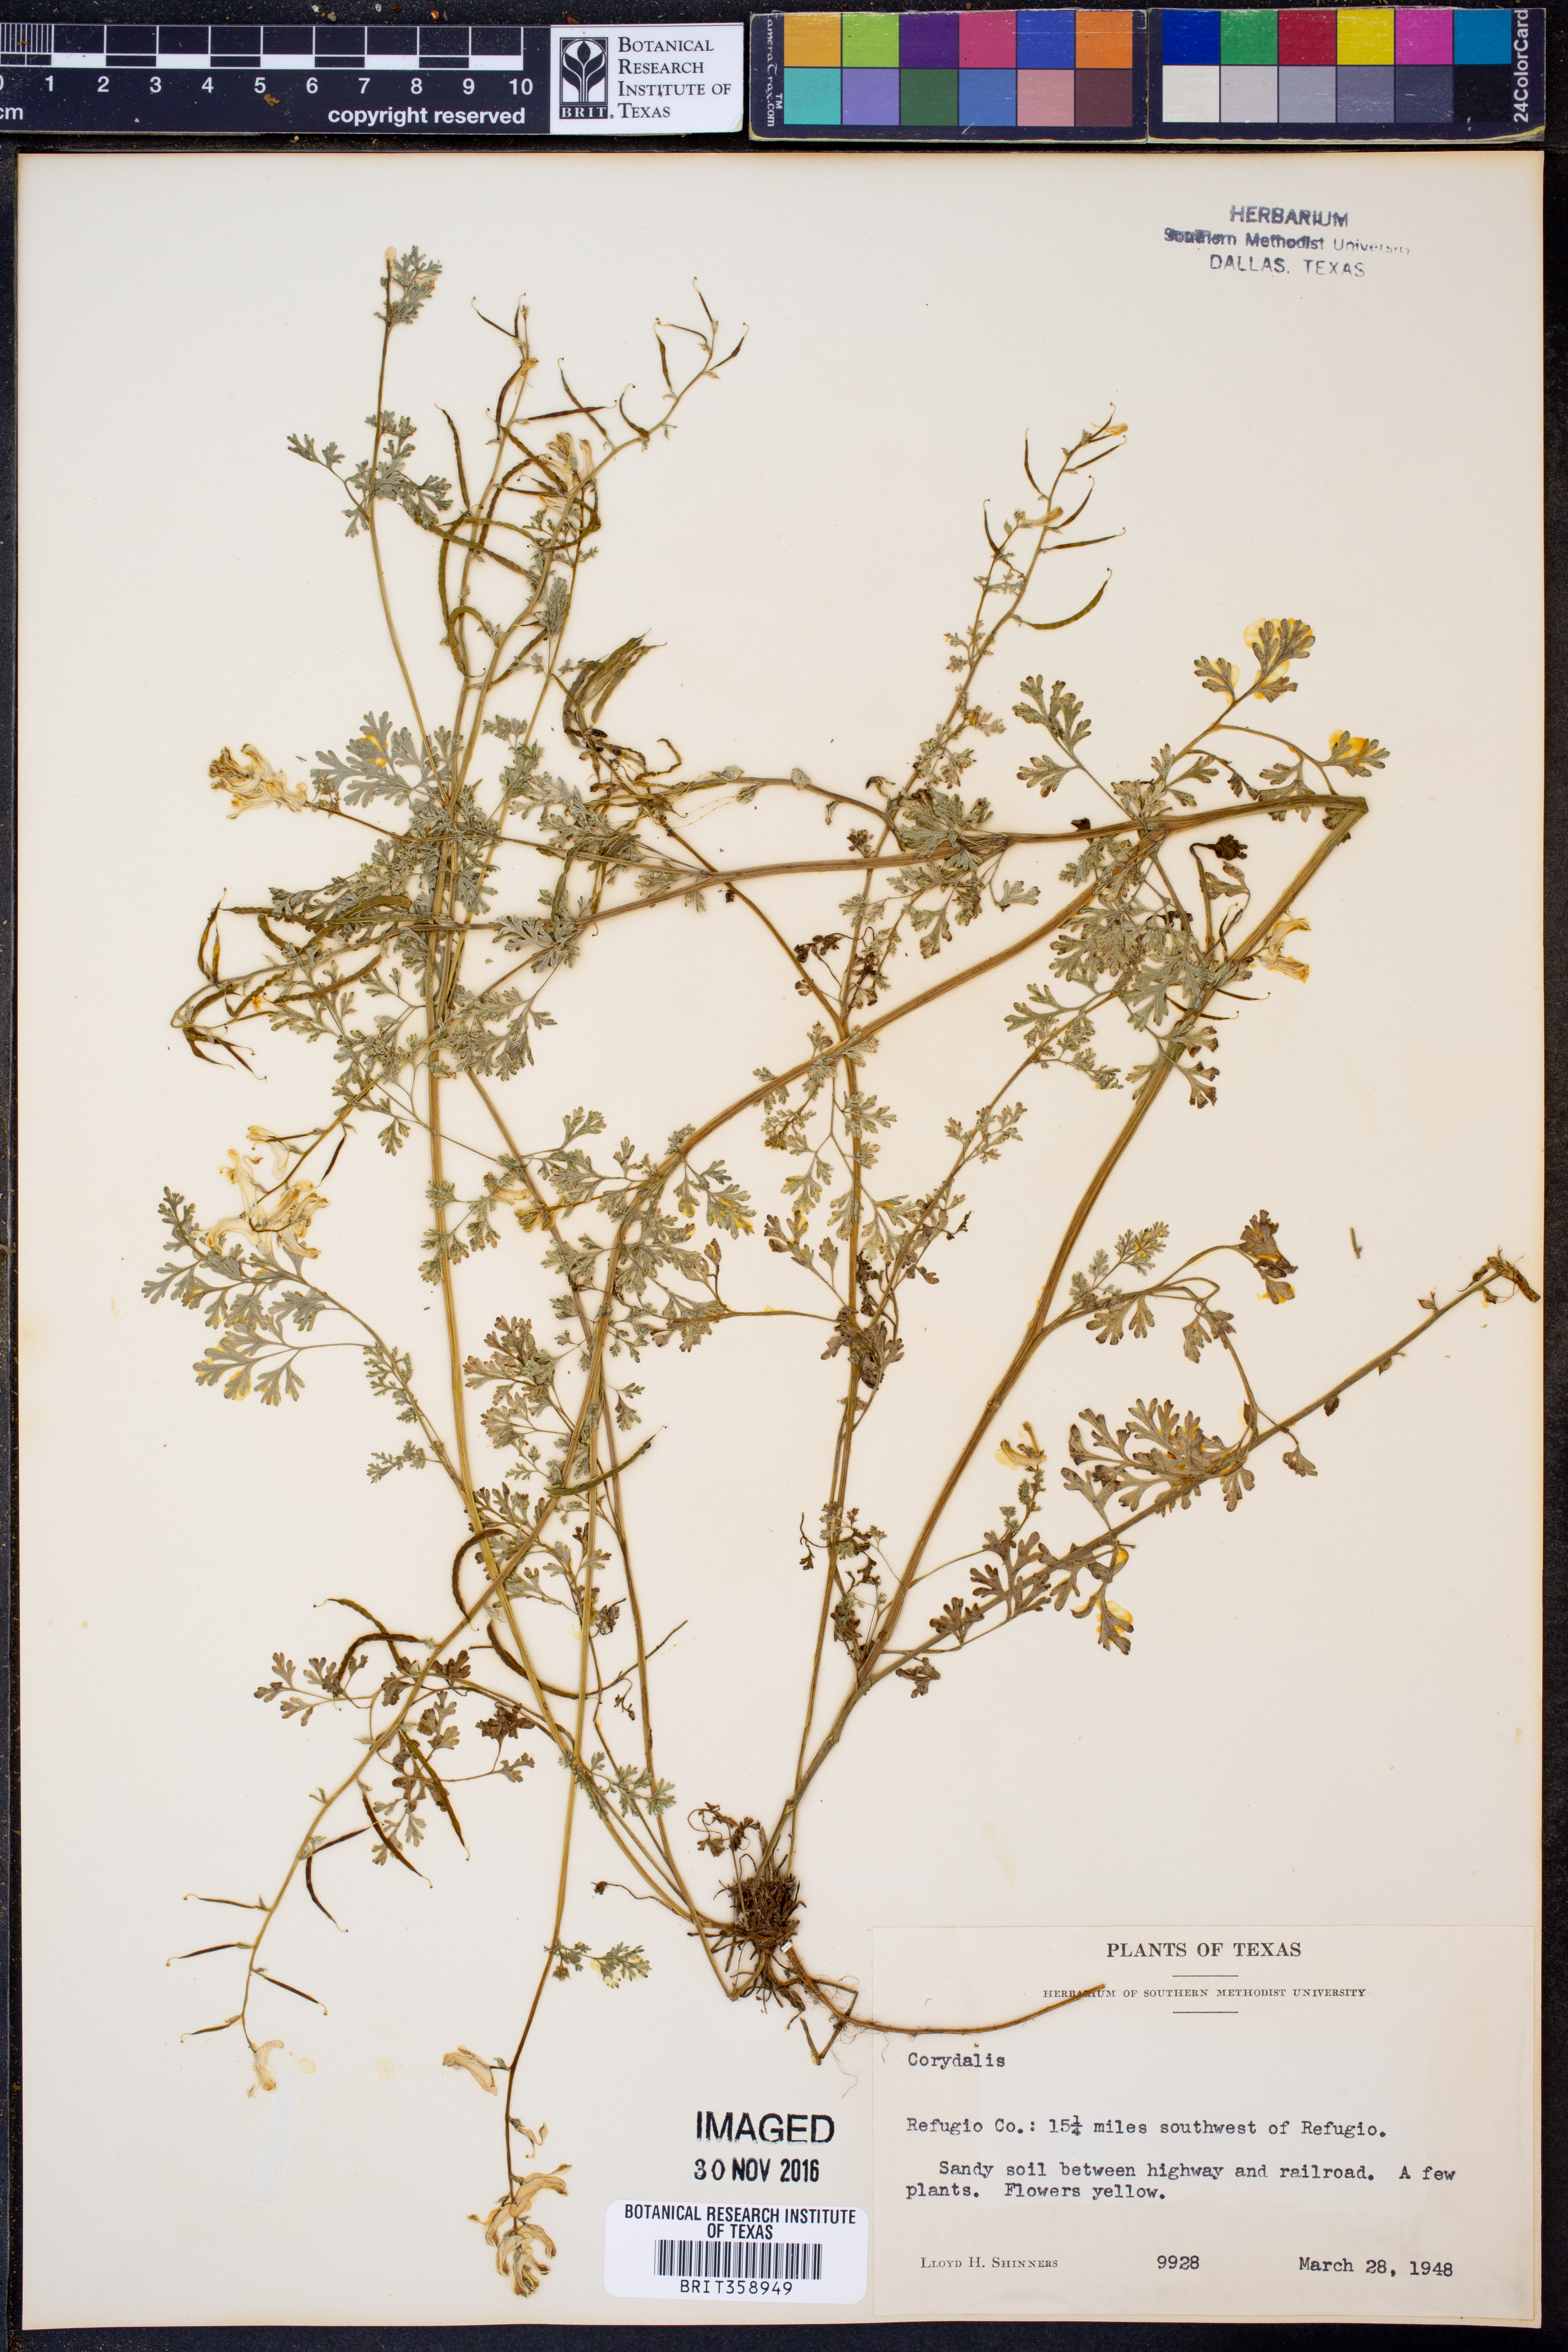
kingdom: Plantae
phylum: Tracheophyta
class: Magnoliopsida
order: Ranunculales
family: Papaveraceae
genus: Corydalis
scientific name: Corydalis
